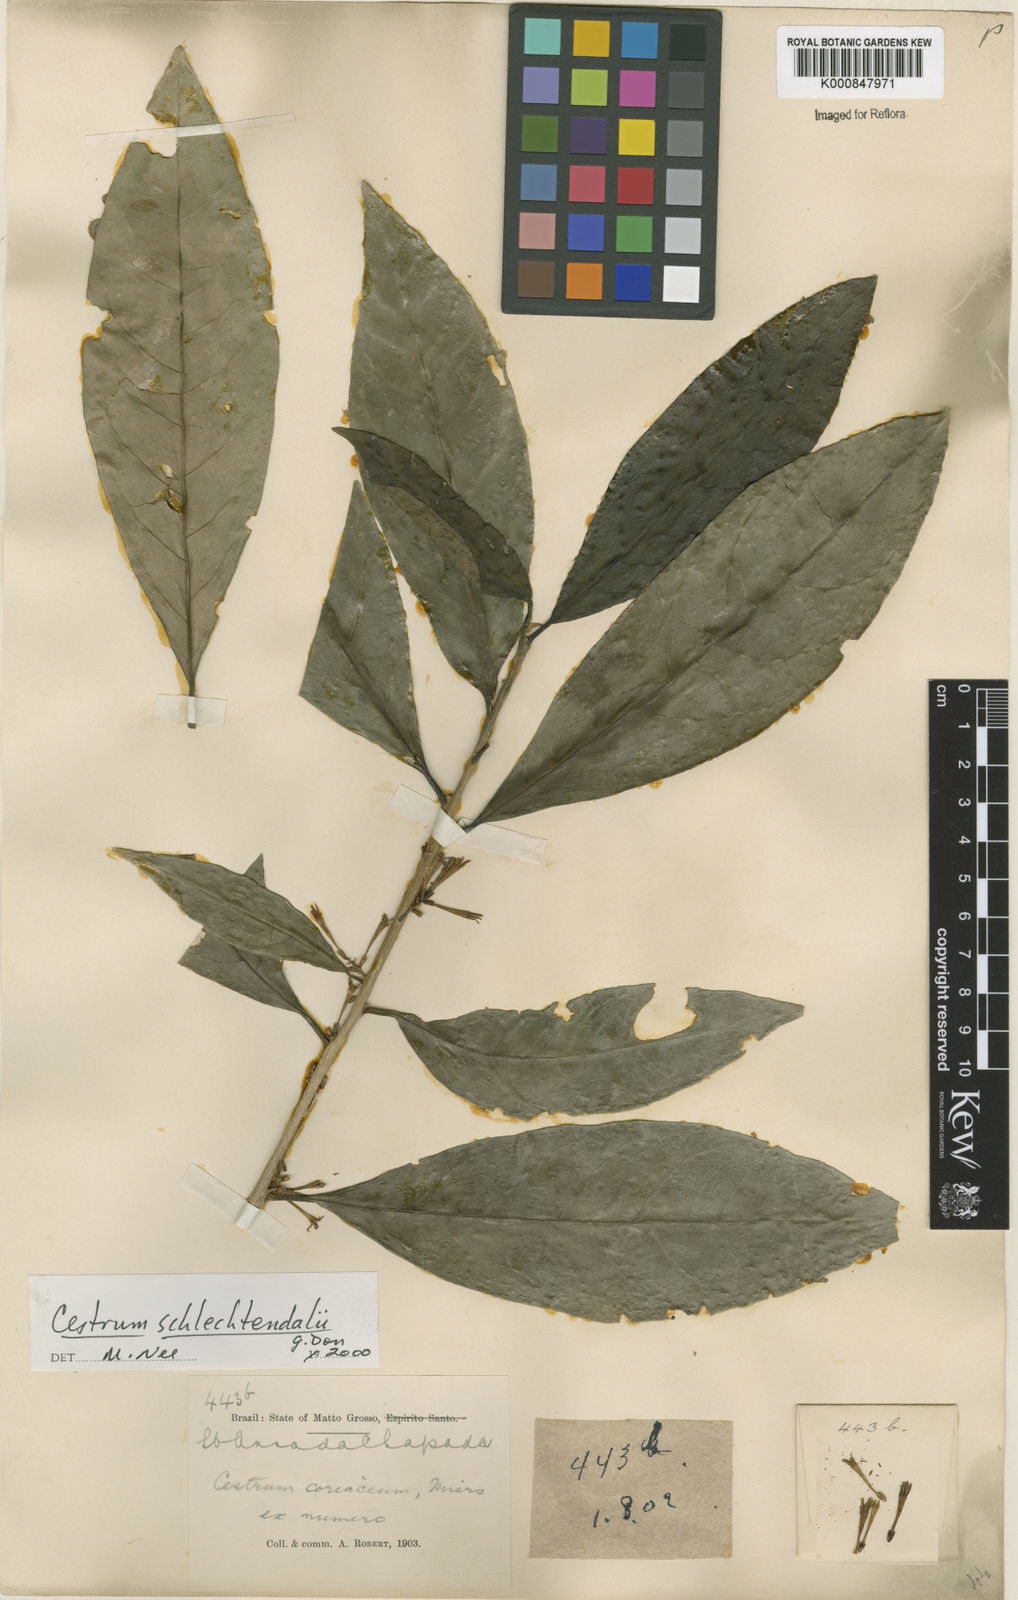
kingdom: Plantae
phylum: Tracheophyta
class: Magnoliopsida
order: Solanales
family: Solanaceae
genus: Cestrum
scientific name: Cestrum schlechtendalii
